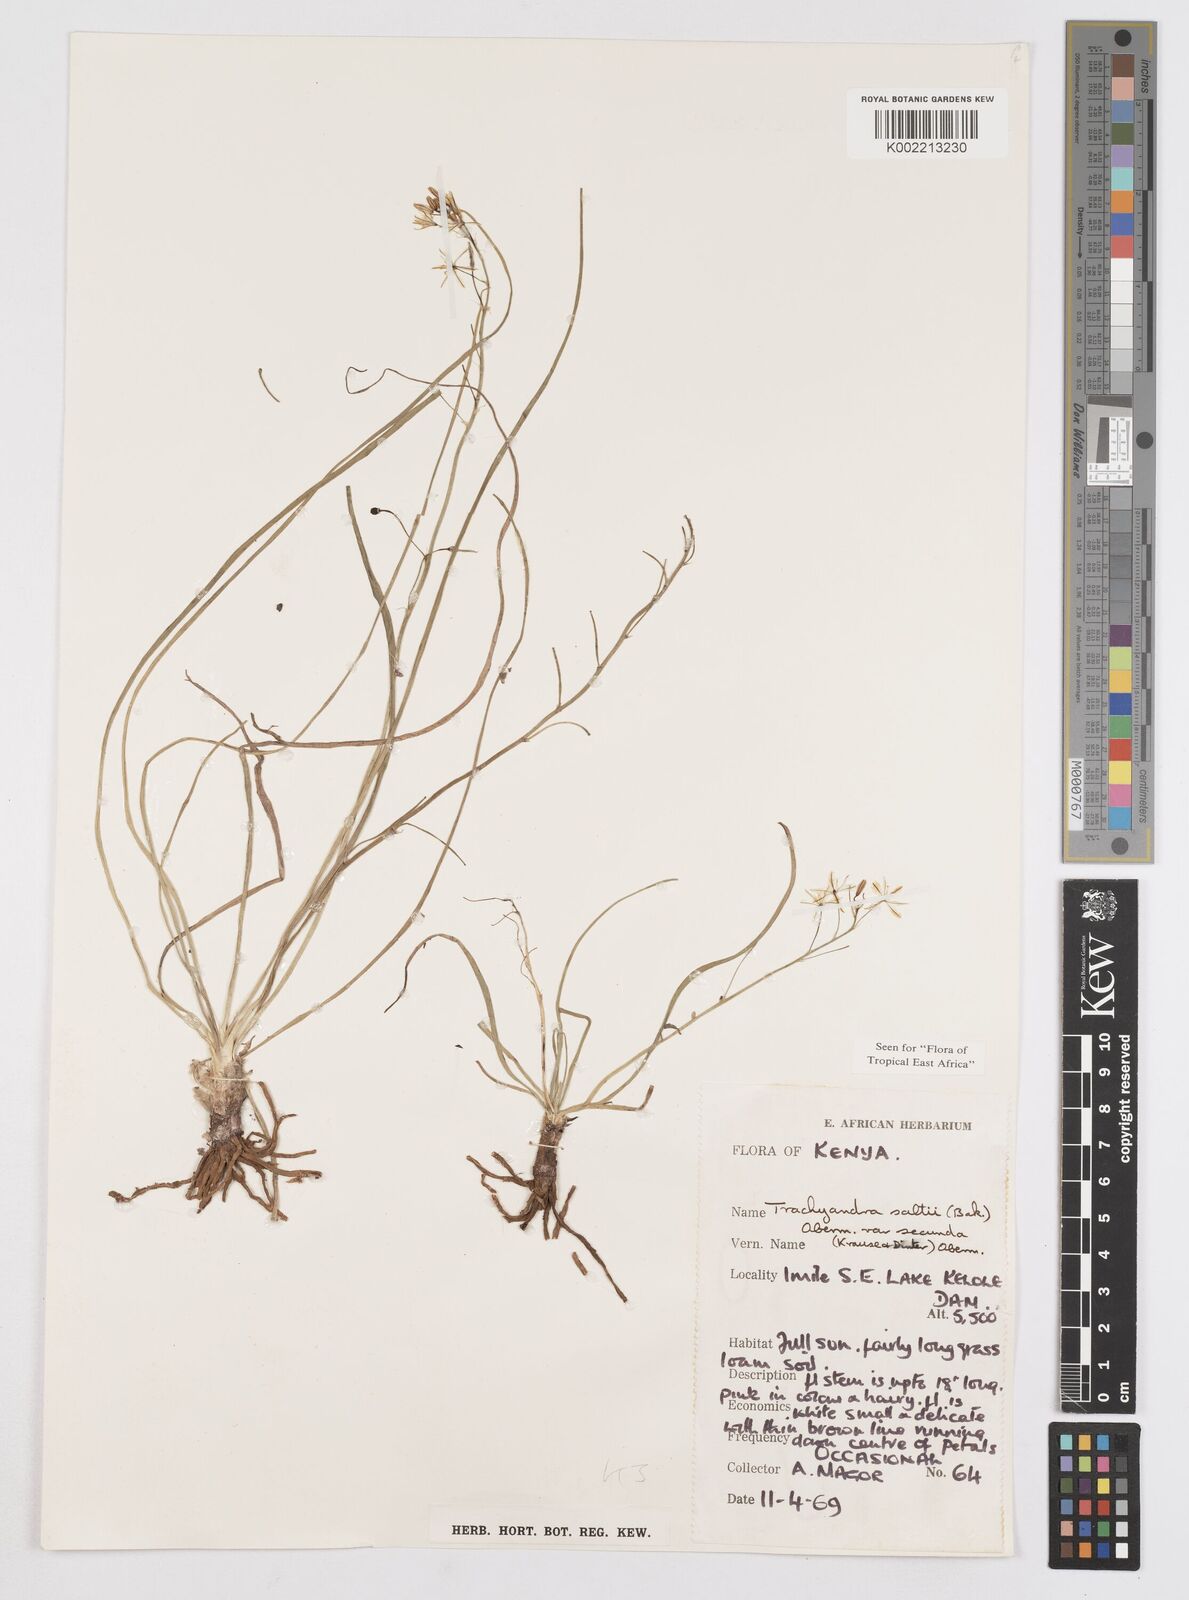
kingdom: Plantae
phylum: Tracheophyta
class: Liliopsida
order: Asparagales
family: Asphodelaceae
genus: Trachyandra
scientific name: Trachyandra saltii
